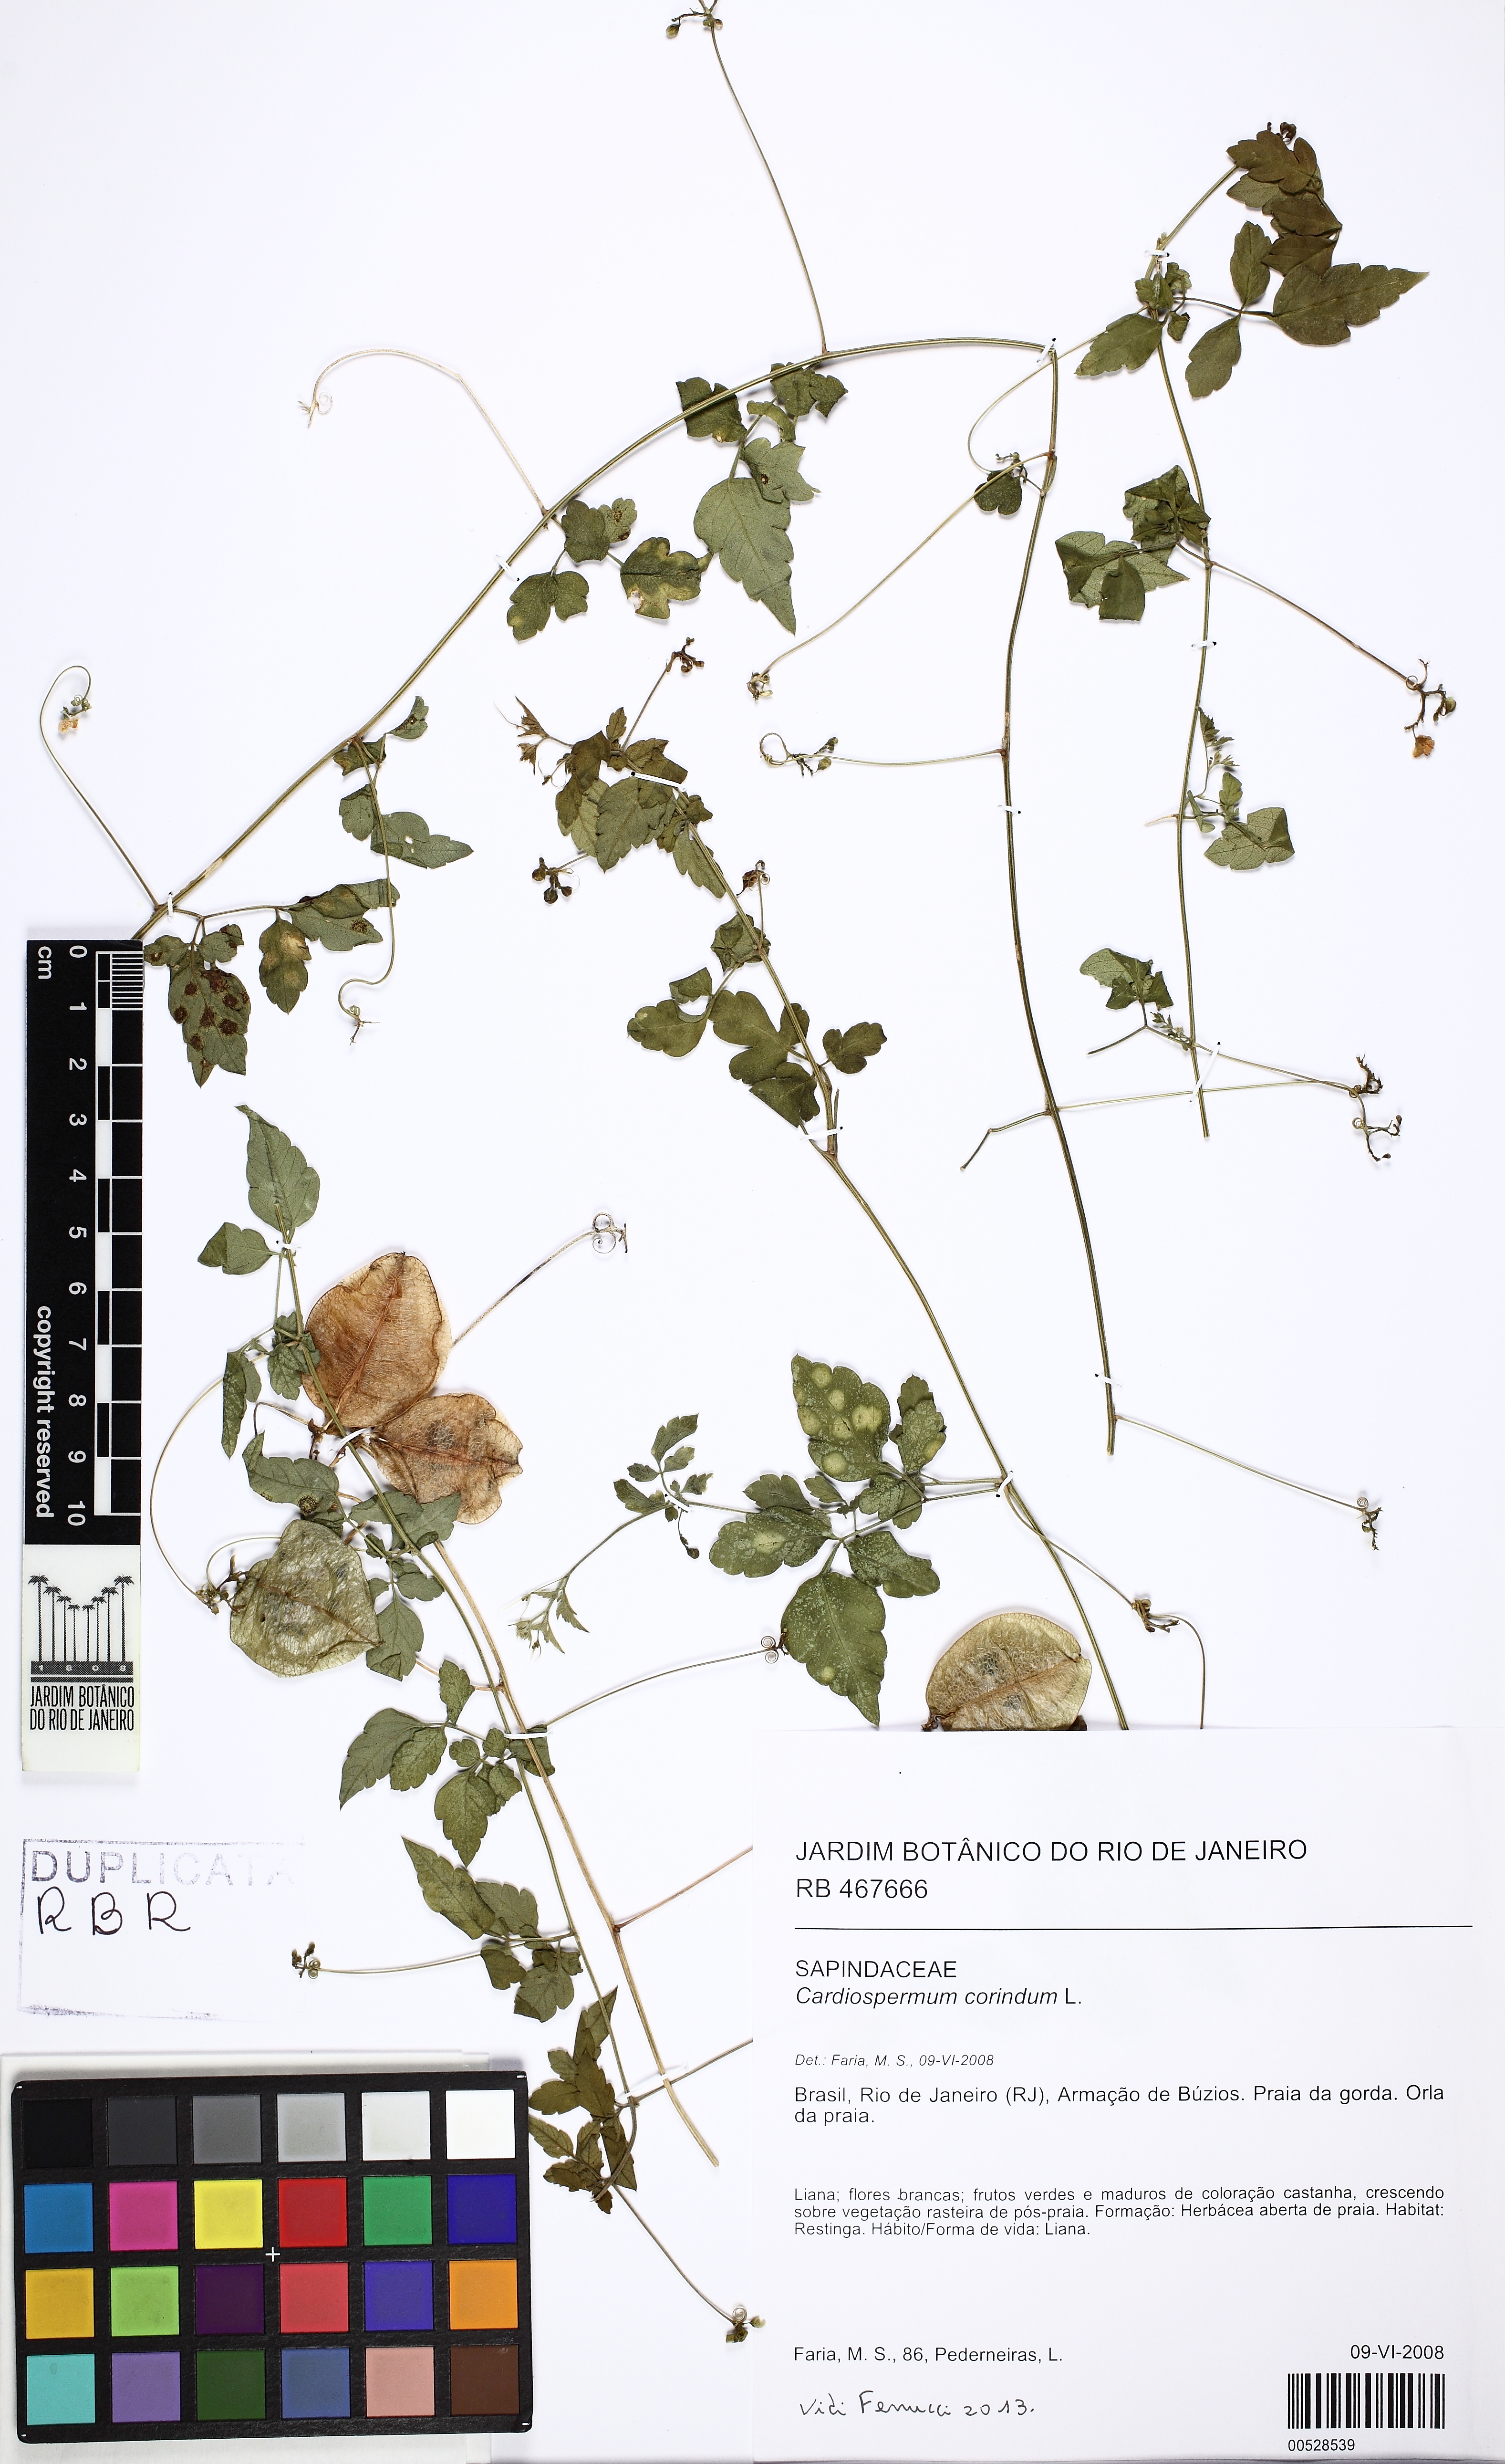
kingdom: Plantae
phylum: Tracheophyta
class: Magnoliopsida
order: Sapindales
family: Sapindaceae
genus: Cardiospermum
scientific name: Cardiospermum corindum
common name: Faux persil
